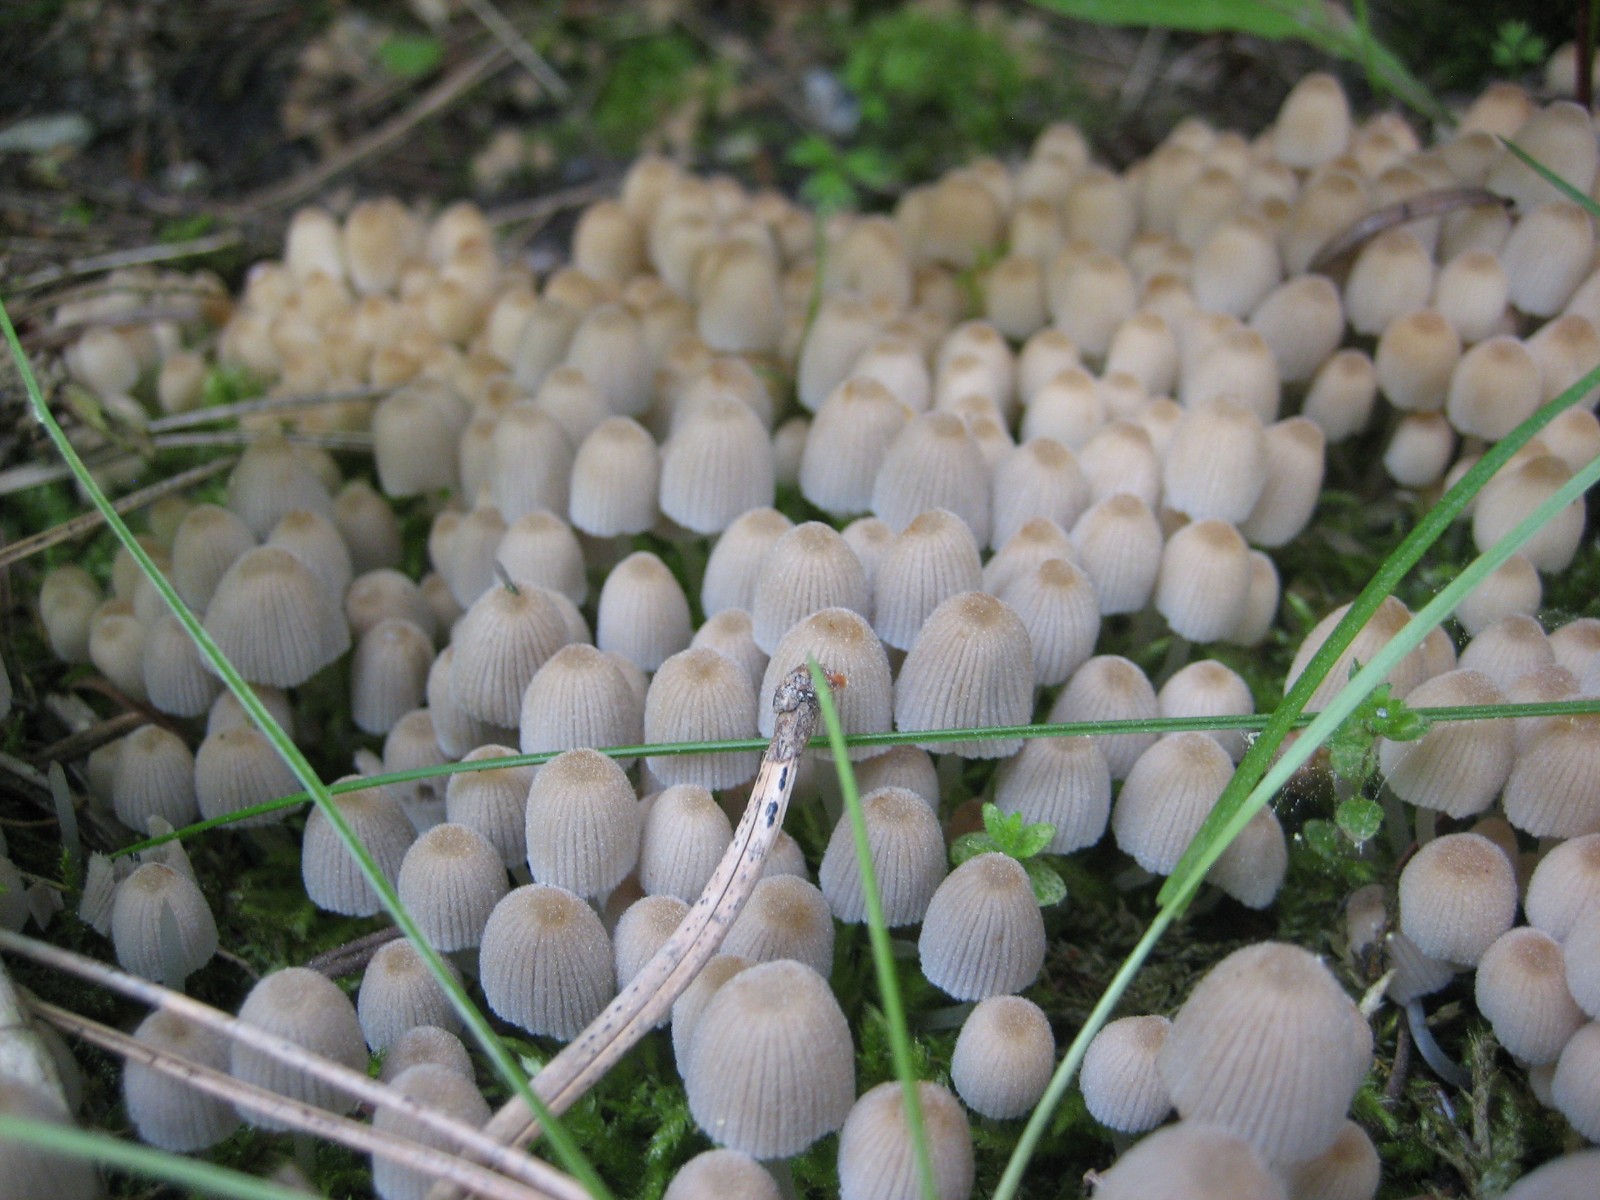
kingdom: Fungi
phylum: Basidiomycota
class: Agaricomycetes
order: Agaricales
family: Psathyrellaceae
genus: Coprinellus
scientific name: Coprinellus disseminatus
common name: bredsået blækhat
